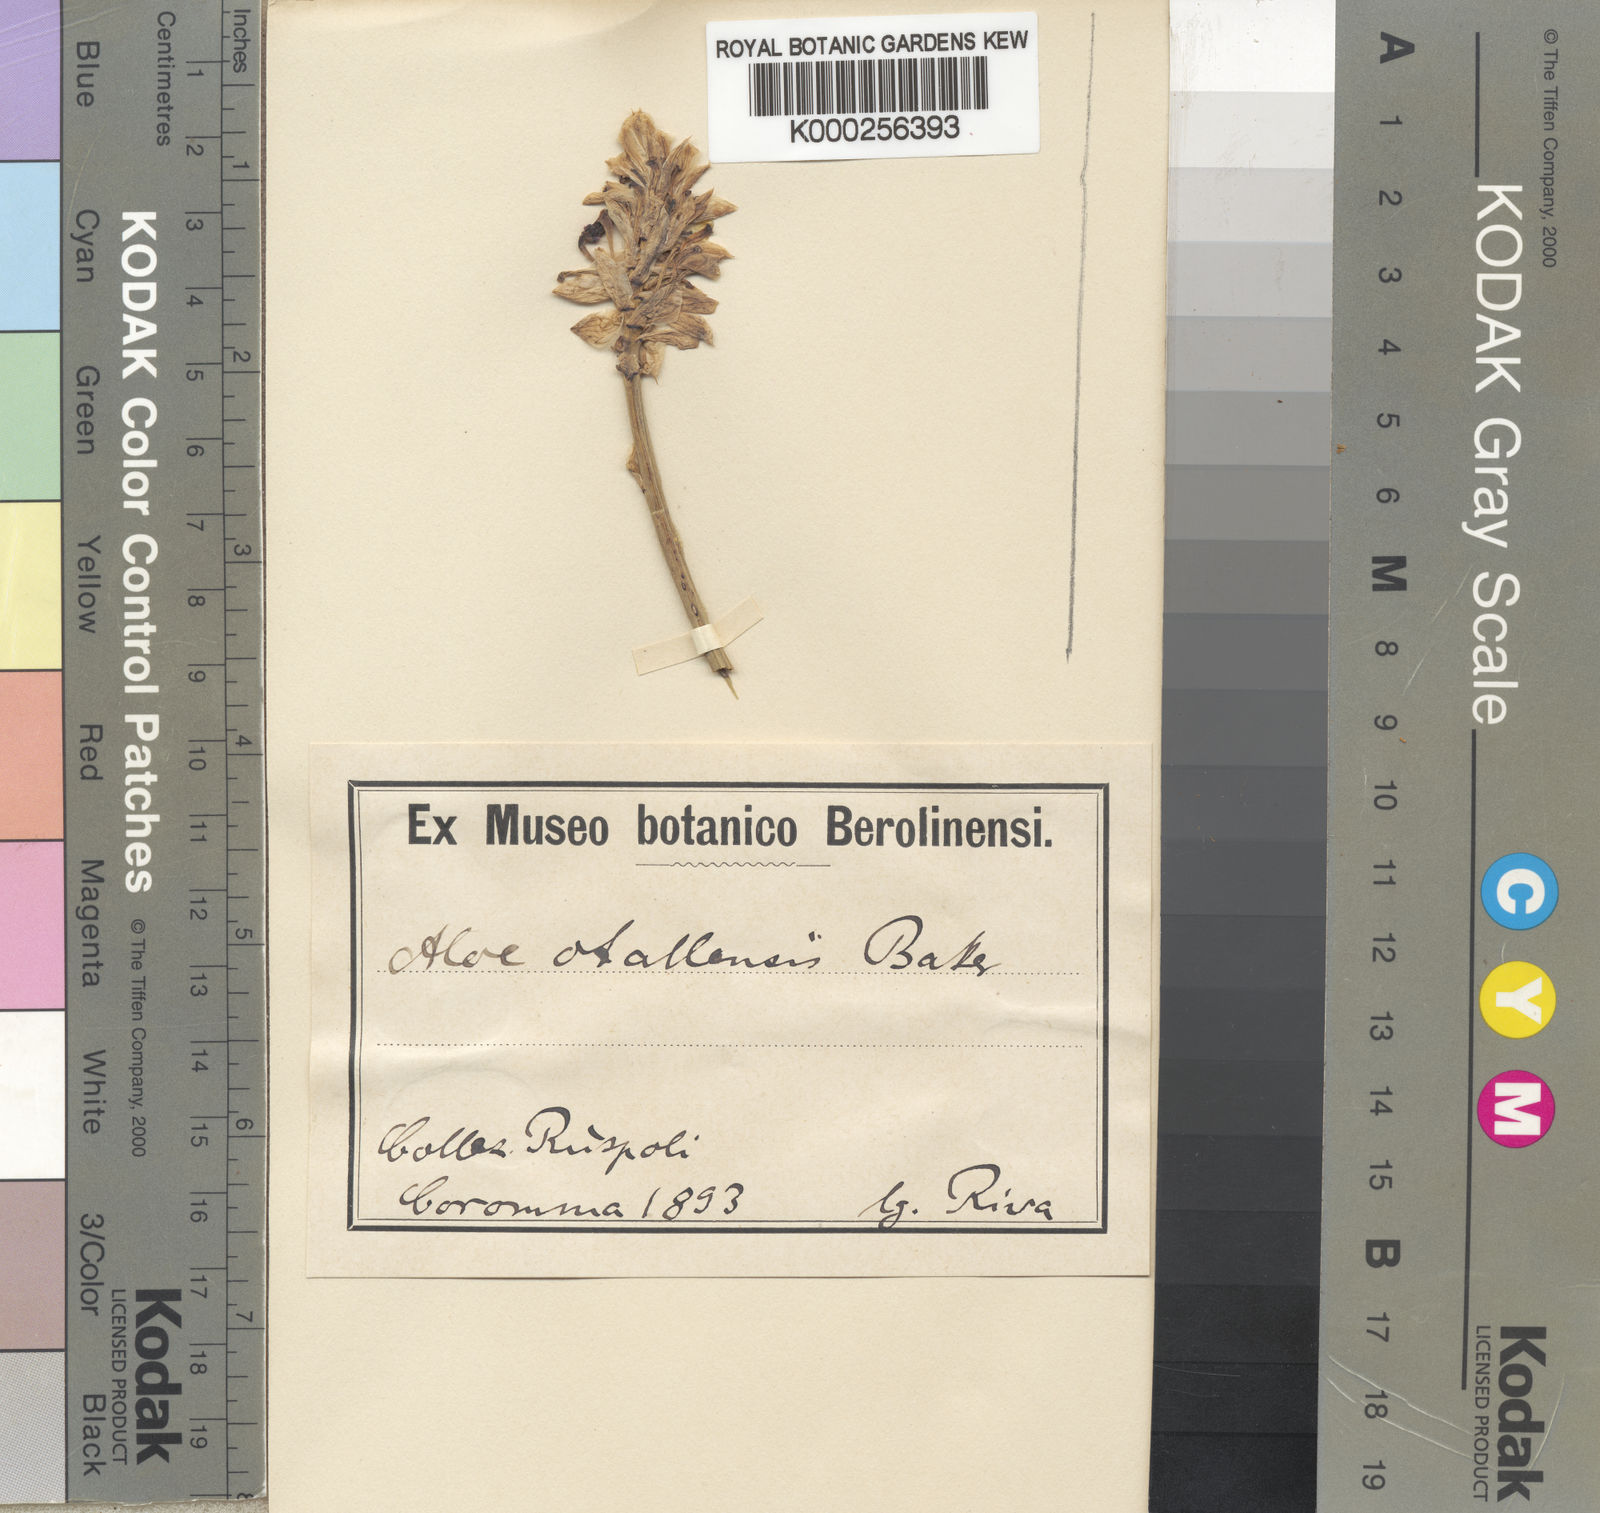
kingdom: Plantae
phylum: Tracheophyta
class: Liliopsida
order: Asparagales
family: Asphodelaceae
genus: Aloe
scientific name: Aloe otallensis
